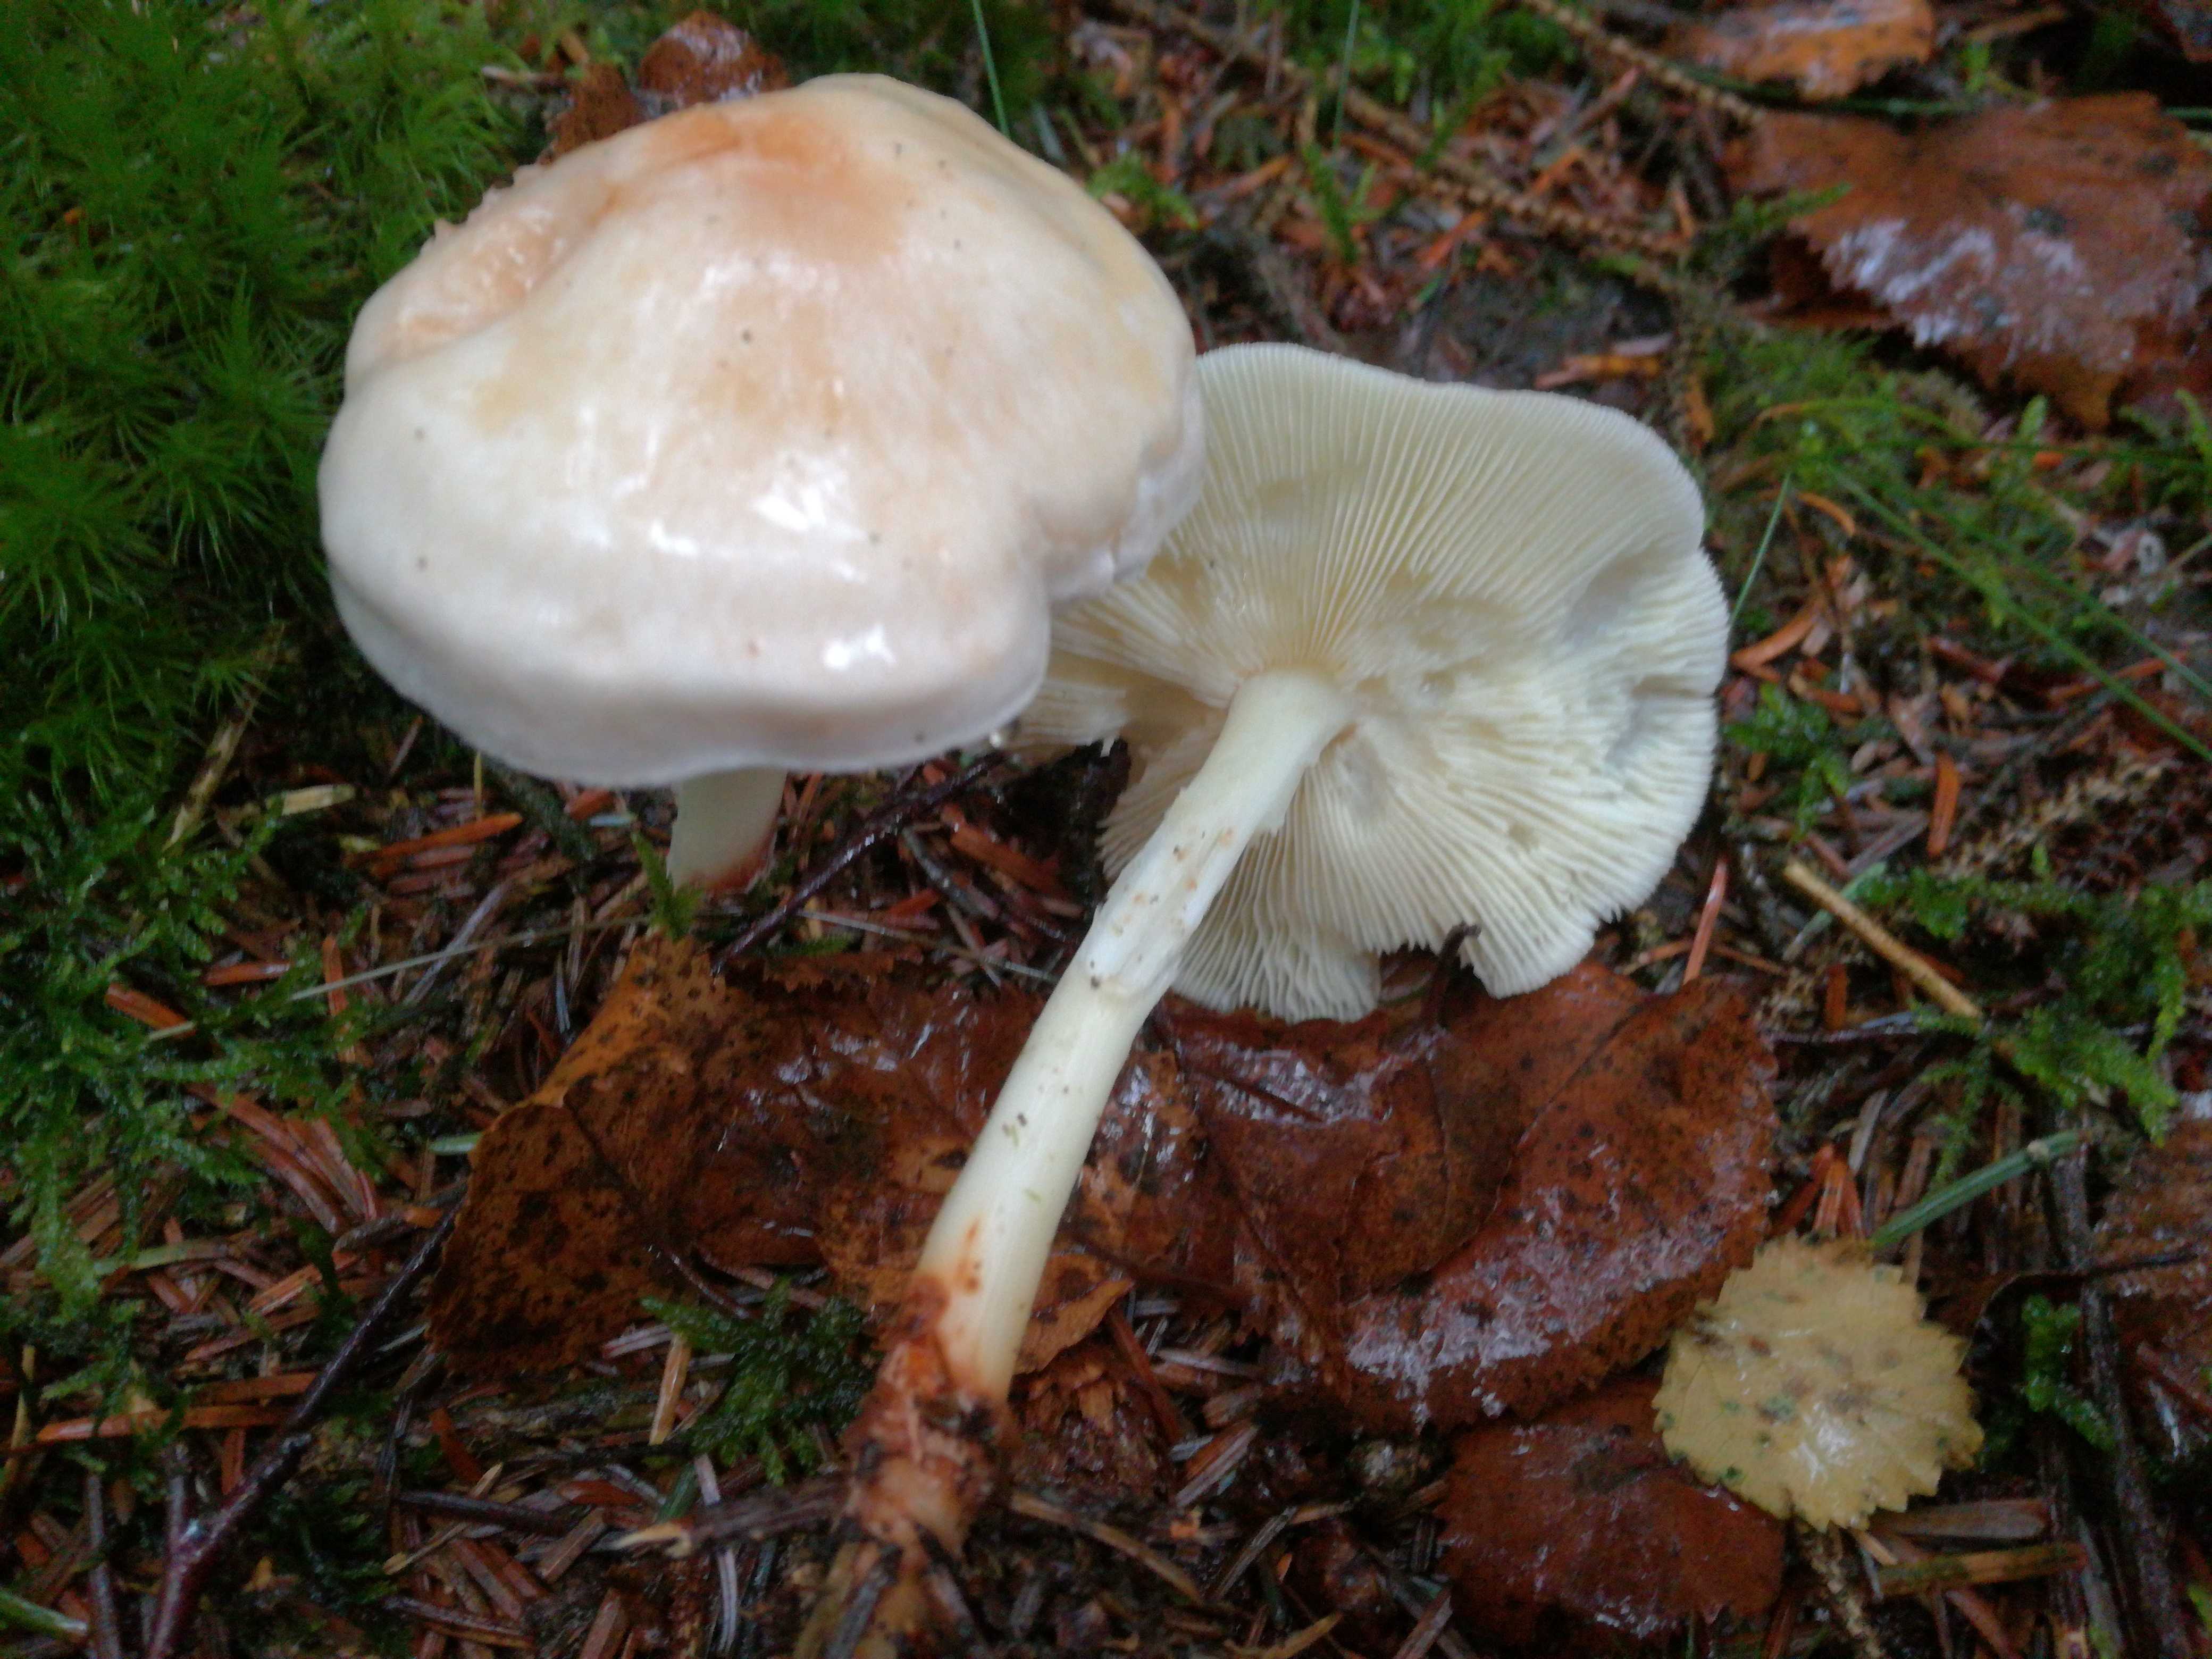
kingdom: Fungi
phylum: Basidiomycota
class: Agaricomycetes
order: Agaricales
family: Omphalotaceae
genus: Rhodocollybia
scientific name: Rhodocollybia maculata
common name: plettet fladhat
